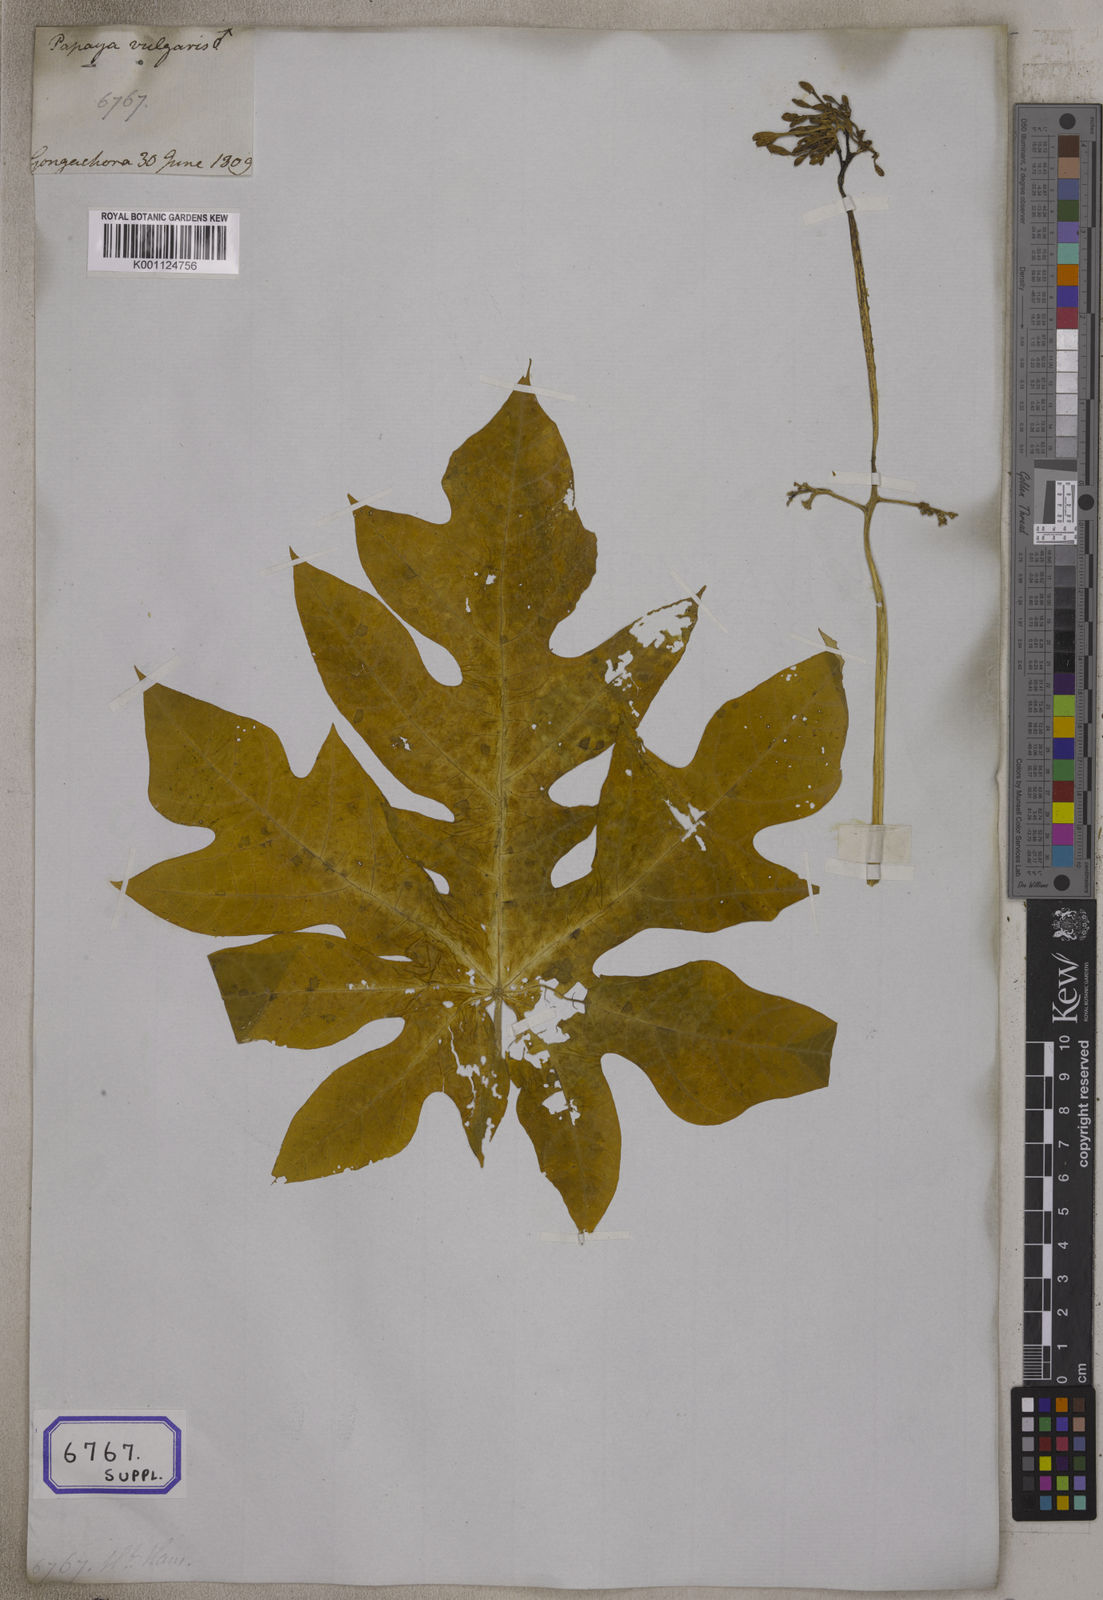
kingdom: Plantae
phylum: Tracheophyta
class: Magnoliopsida
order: Brassicales
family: Caricaceae
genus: Carica
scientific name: Carica papaya
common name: Papaya
